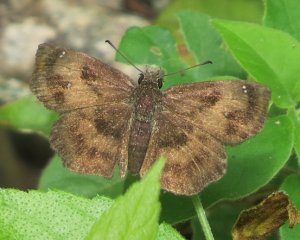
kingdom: Animalia
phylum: Arthropoda
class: Insecta
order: Lepidoptera
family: Hesperiidae
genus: Staphylus
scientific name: Staphylus mazans
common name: Mazans Scallopwing
